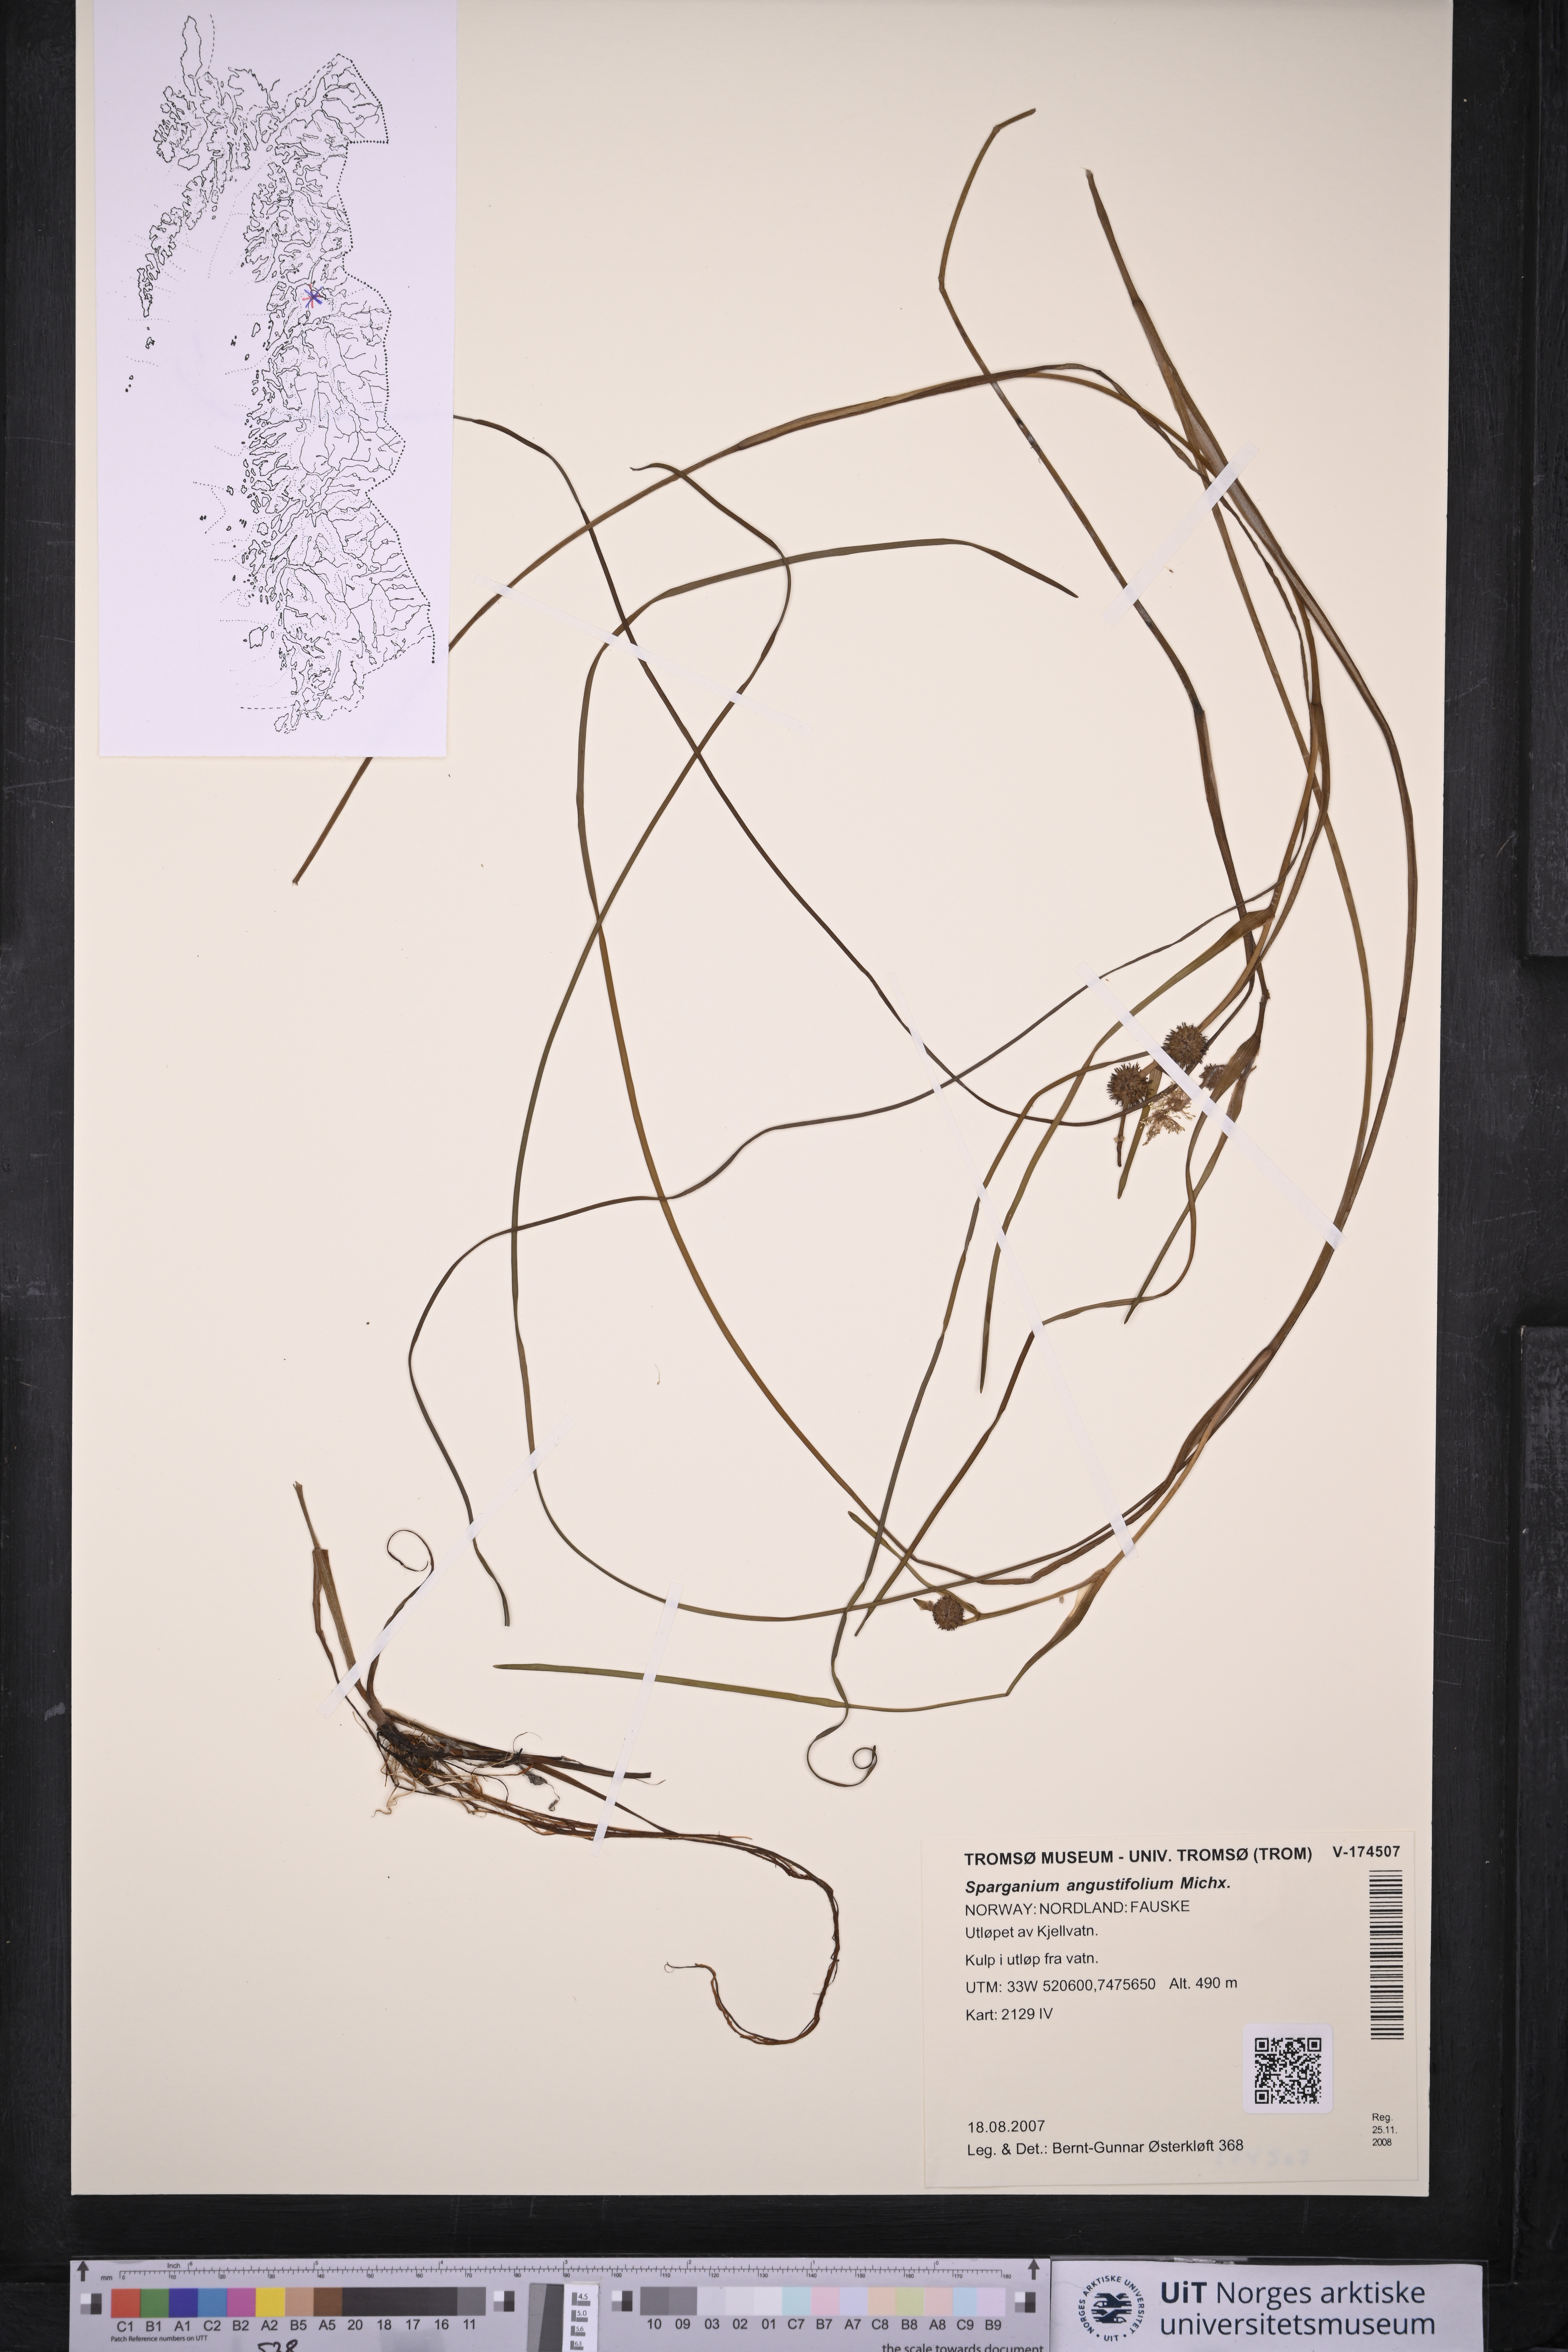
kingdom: Plantae
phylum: Tracheophyta
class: Liliopsida
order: Poales
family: Typhaceae
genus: Sparganium
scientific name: Sparganium angustifolium
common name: Floating bur-reed
